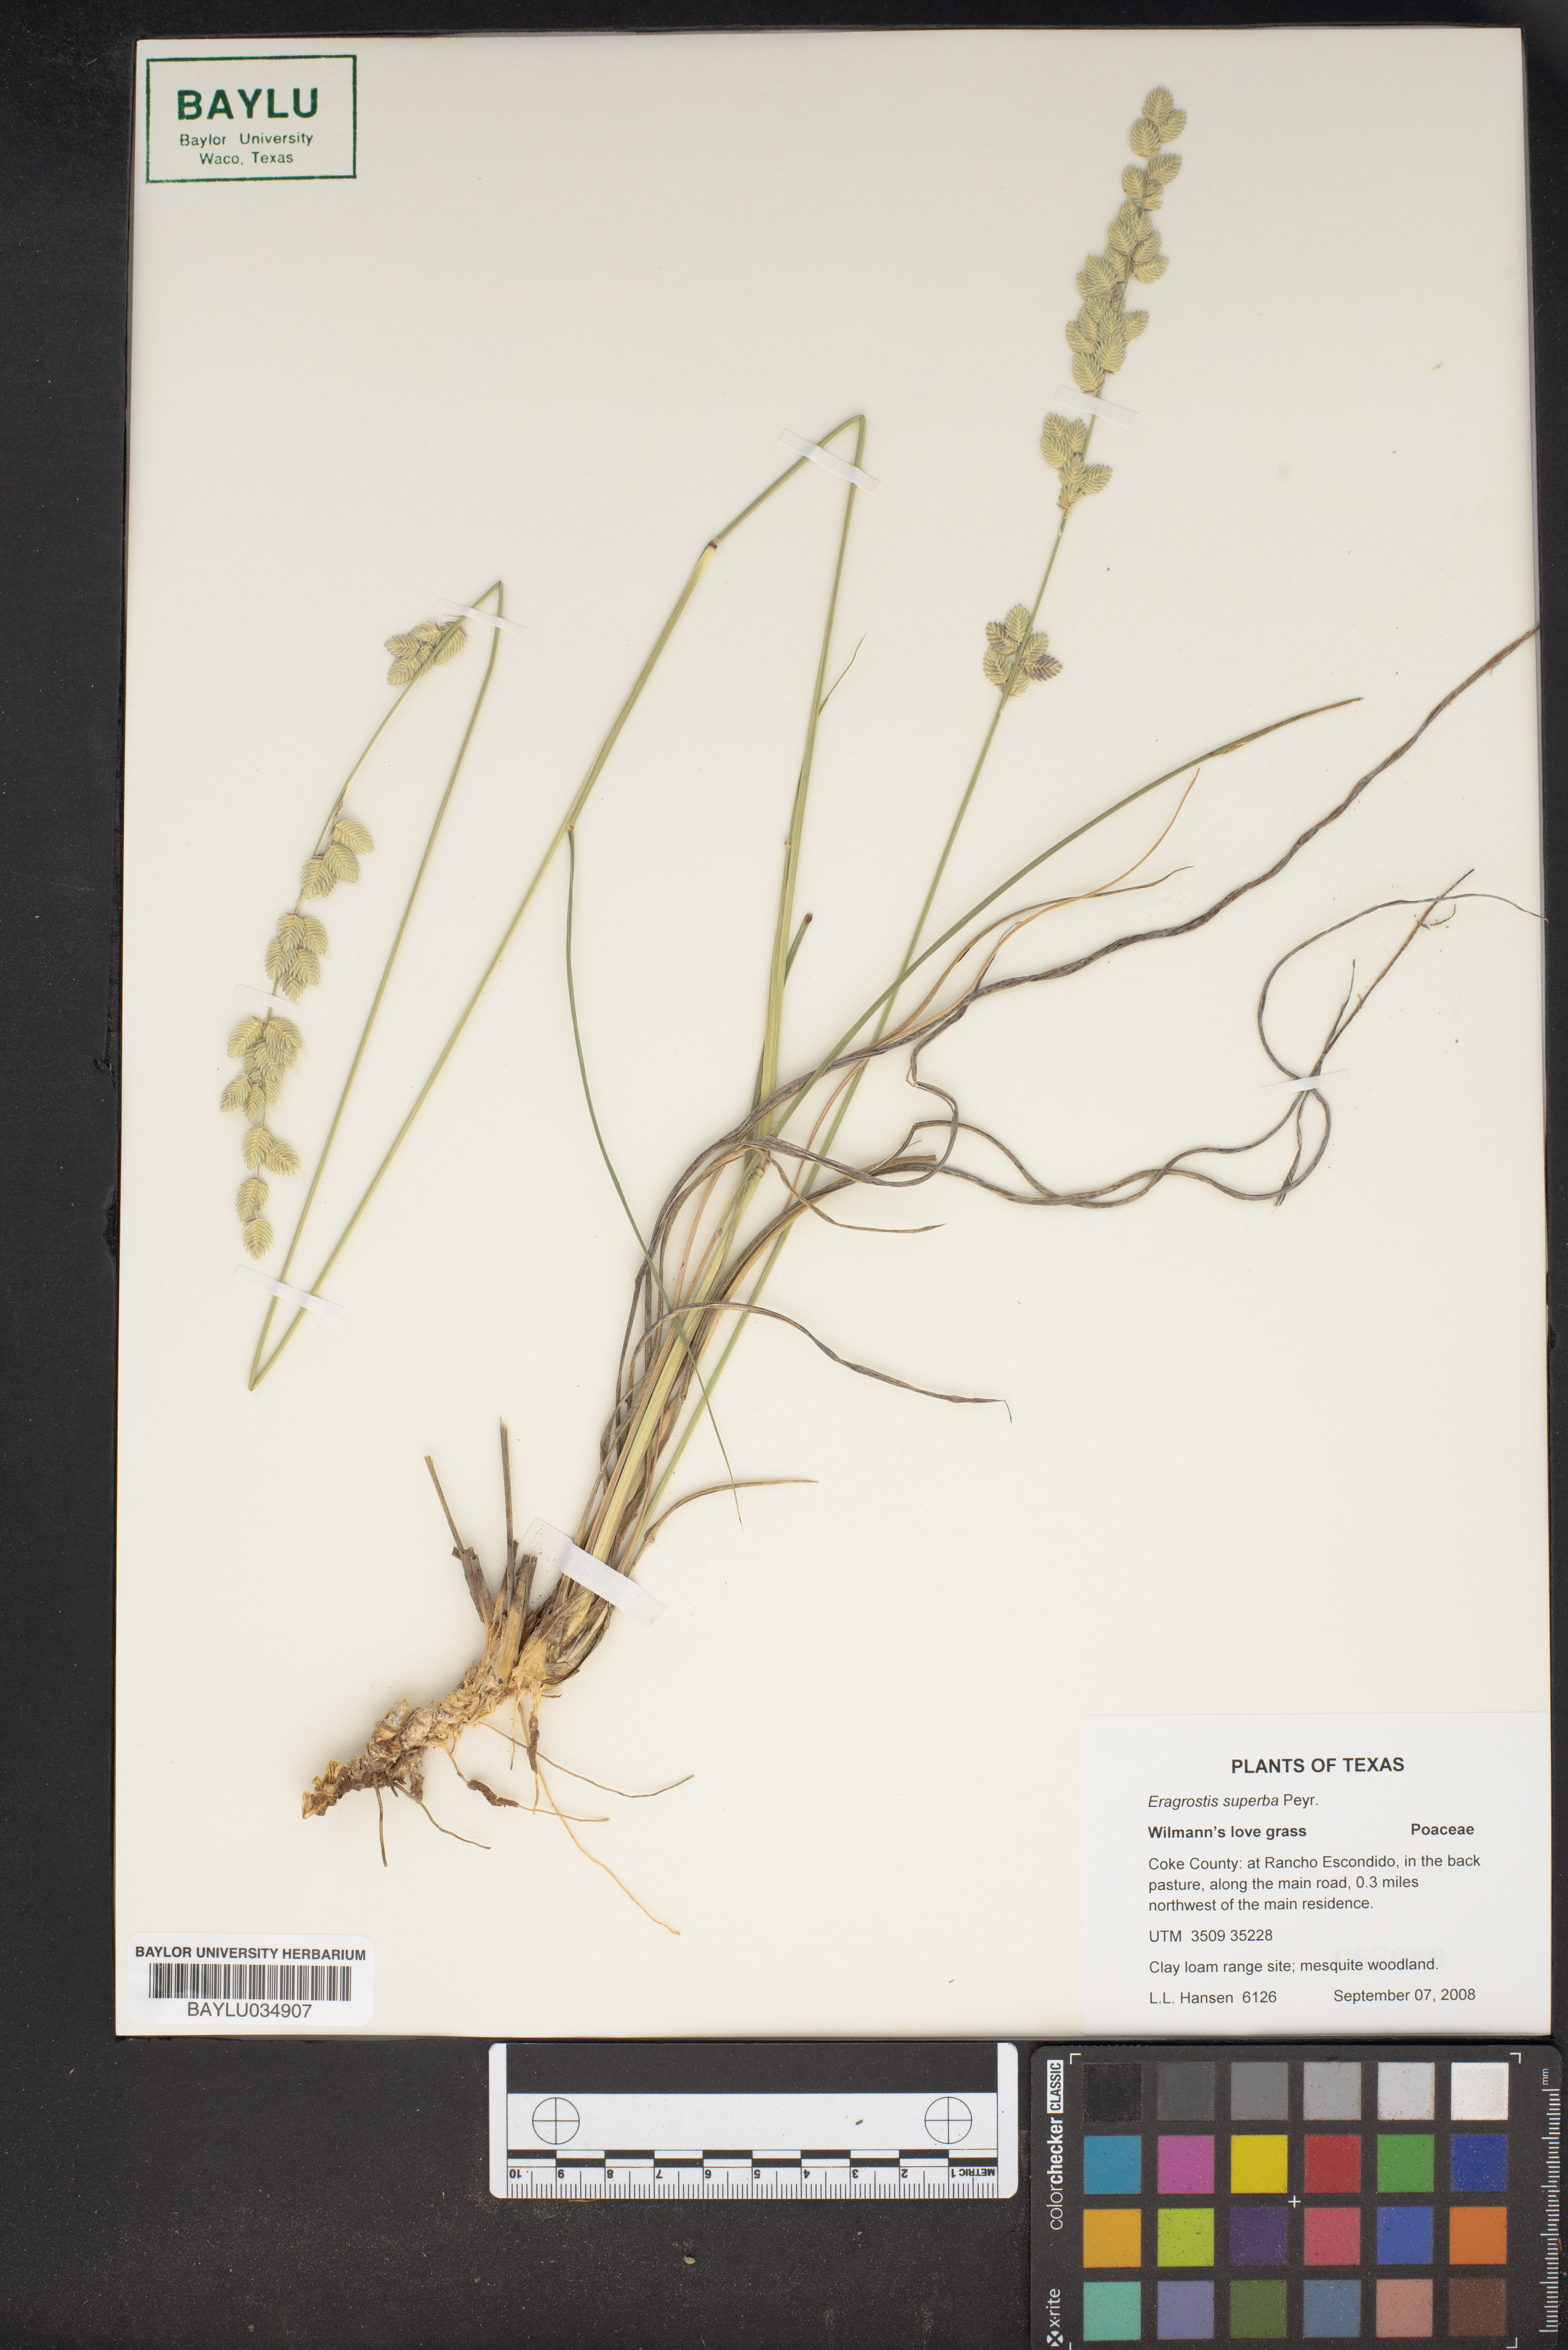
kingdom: Plantae
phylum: Tracheophyta
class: Liliopsida
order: Poales
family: Poaceae
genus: Eragrostis
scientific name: Eragrostis superba
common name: Wilman lovegrass
